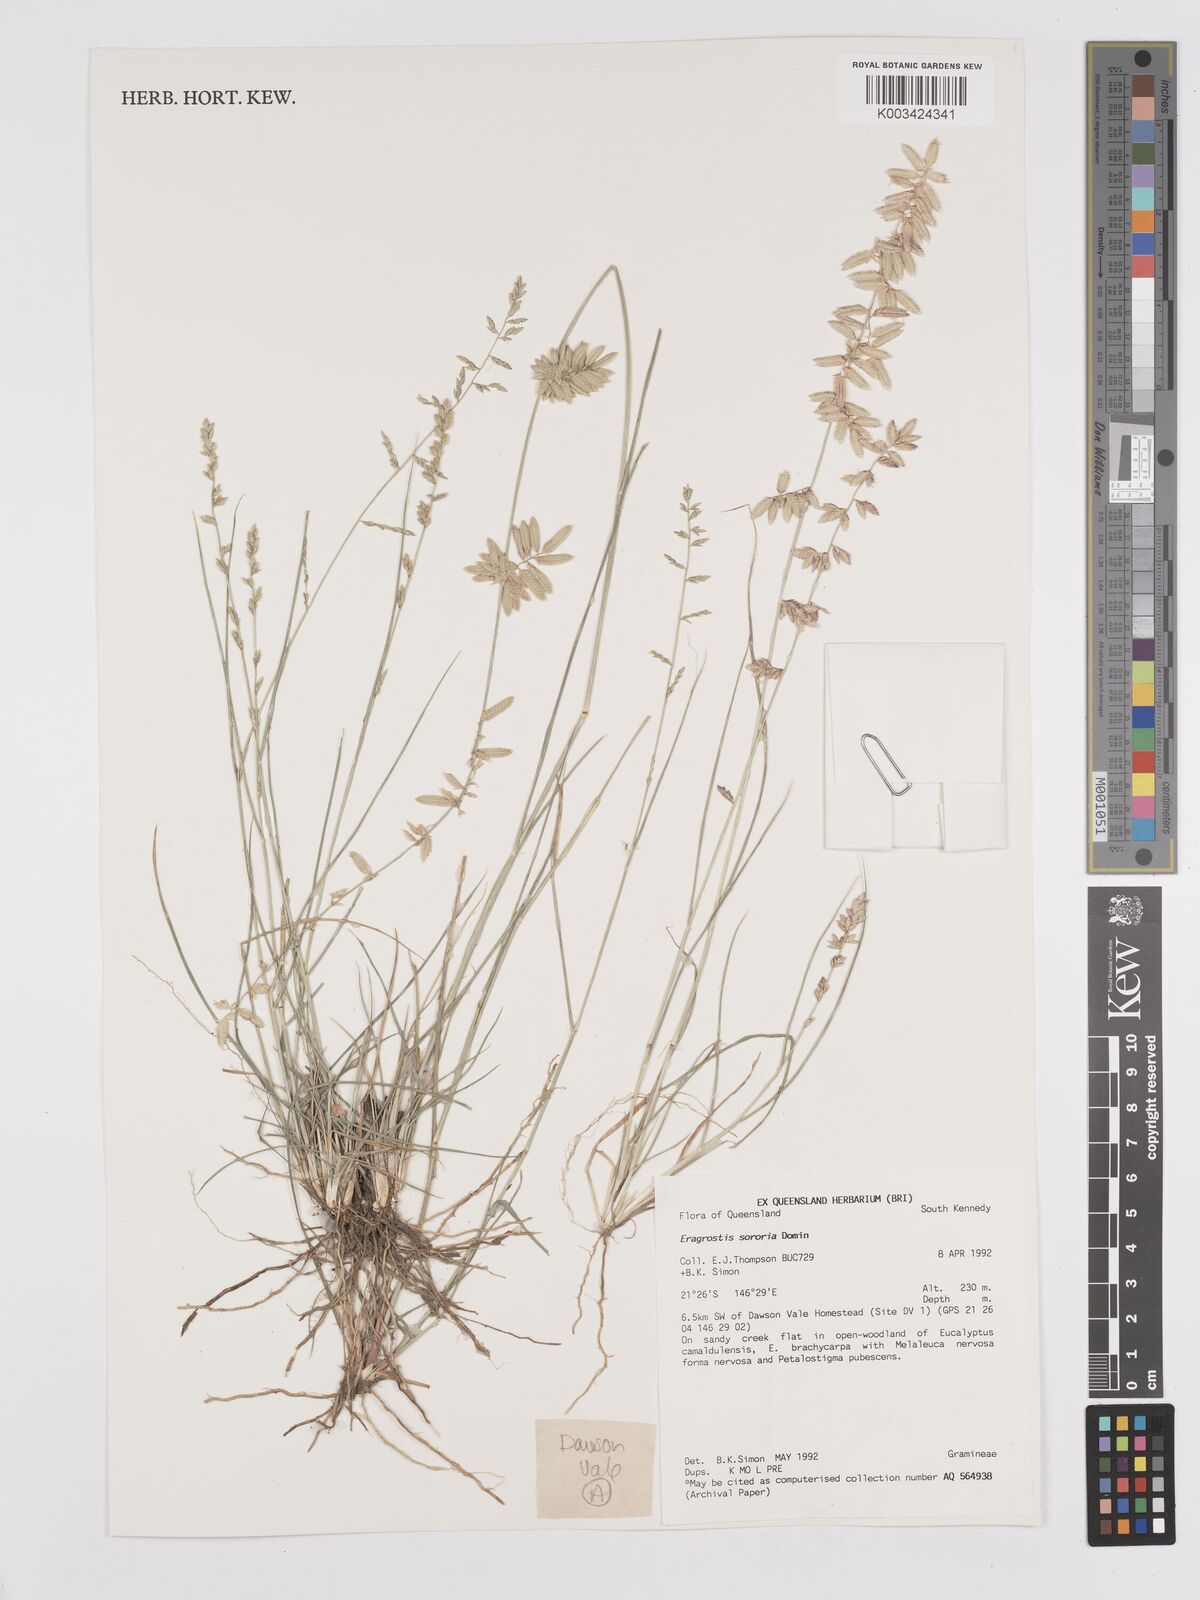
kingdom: Plantae
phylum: Tracheophyta
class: Liliopsida
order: Poales
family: Poaceae
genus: Eragrostis
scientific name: Eragrostis sororia
